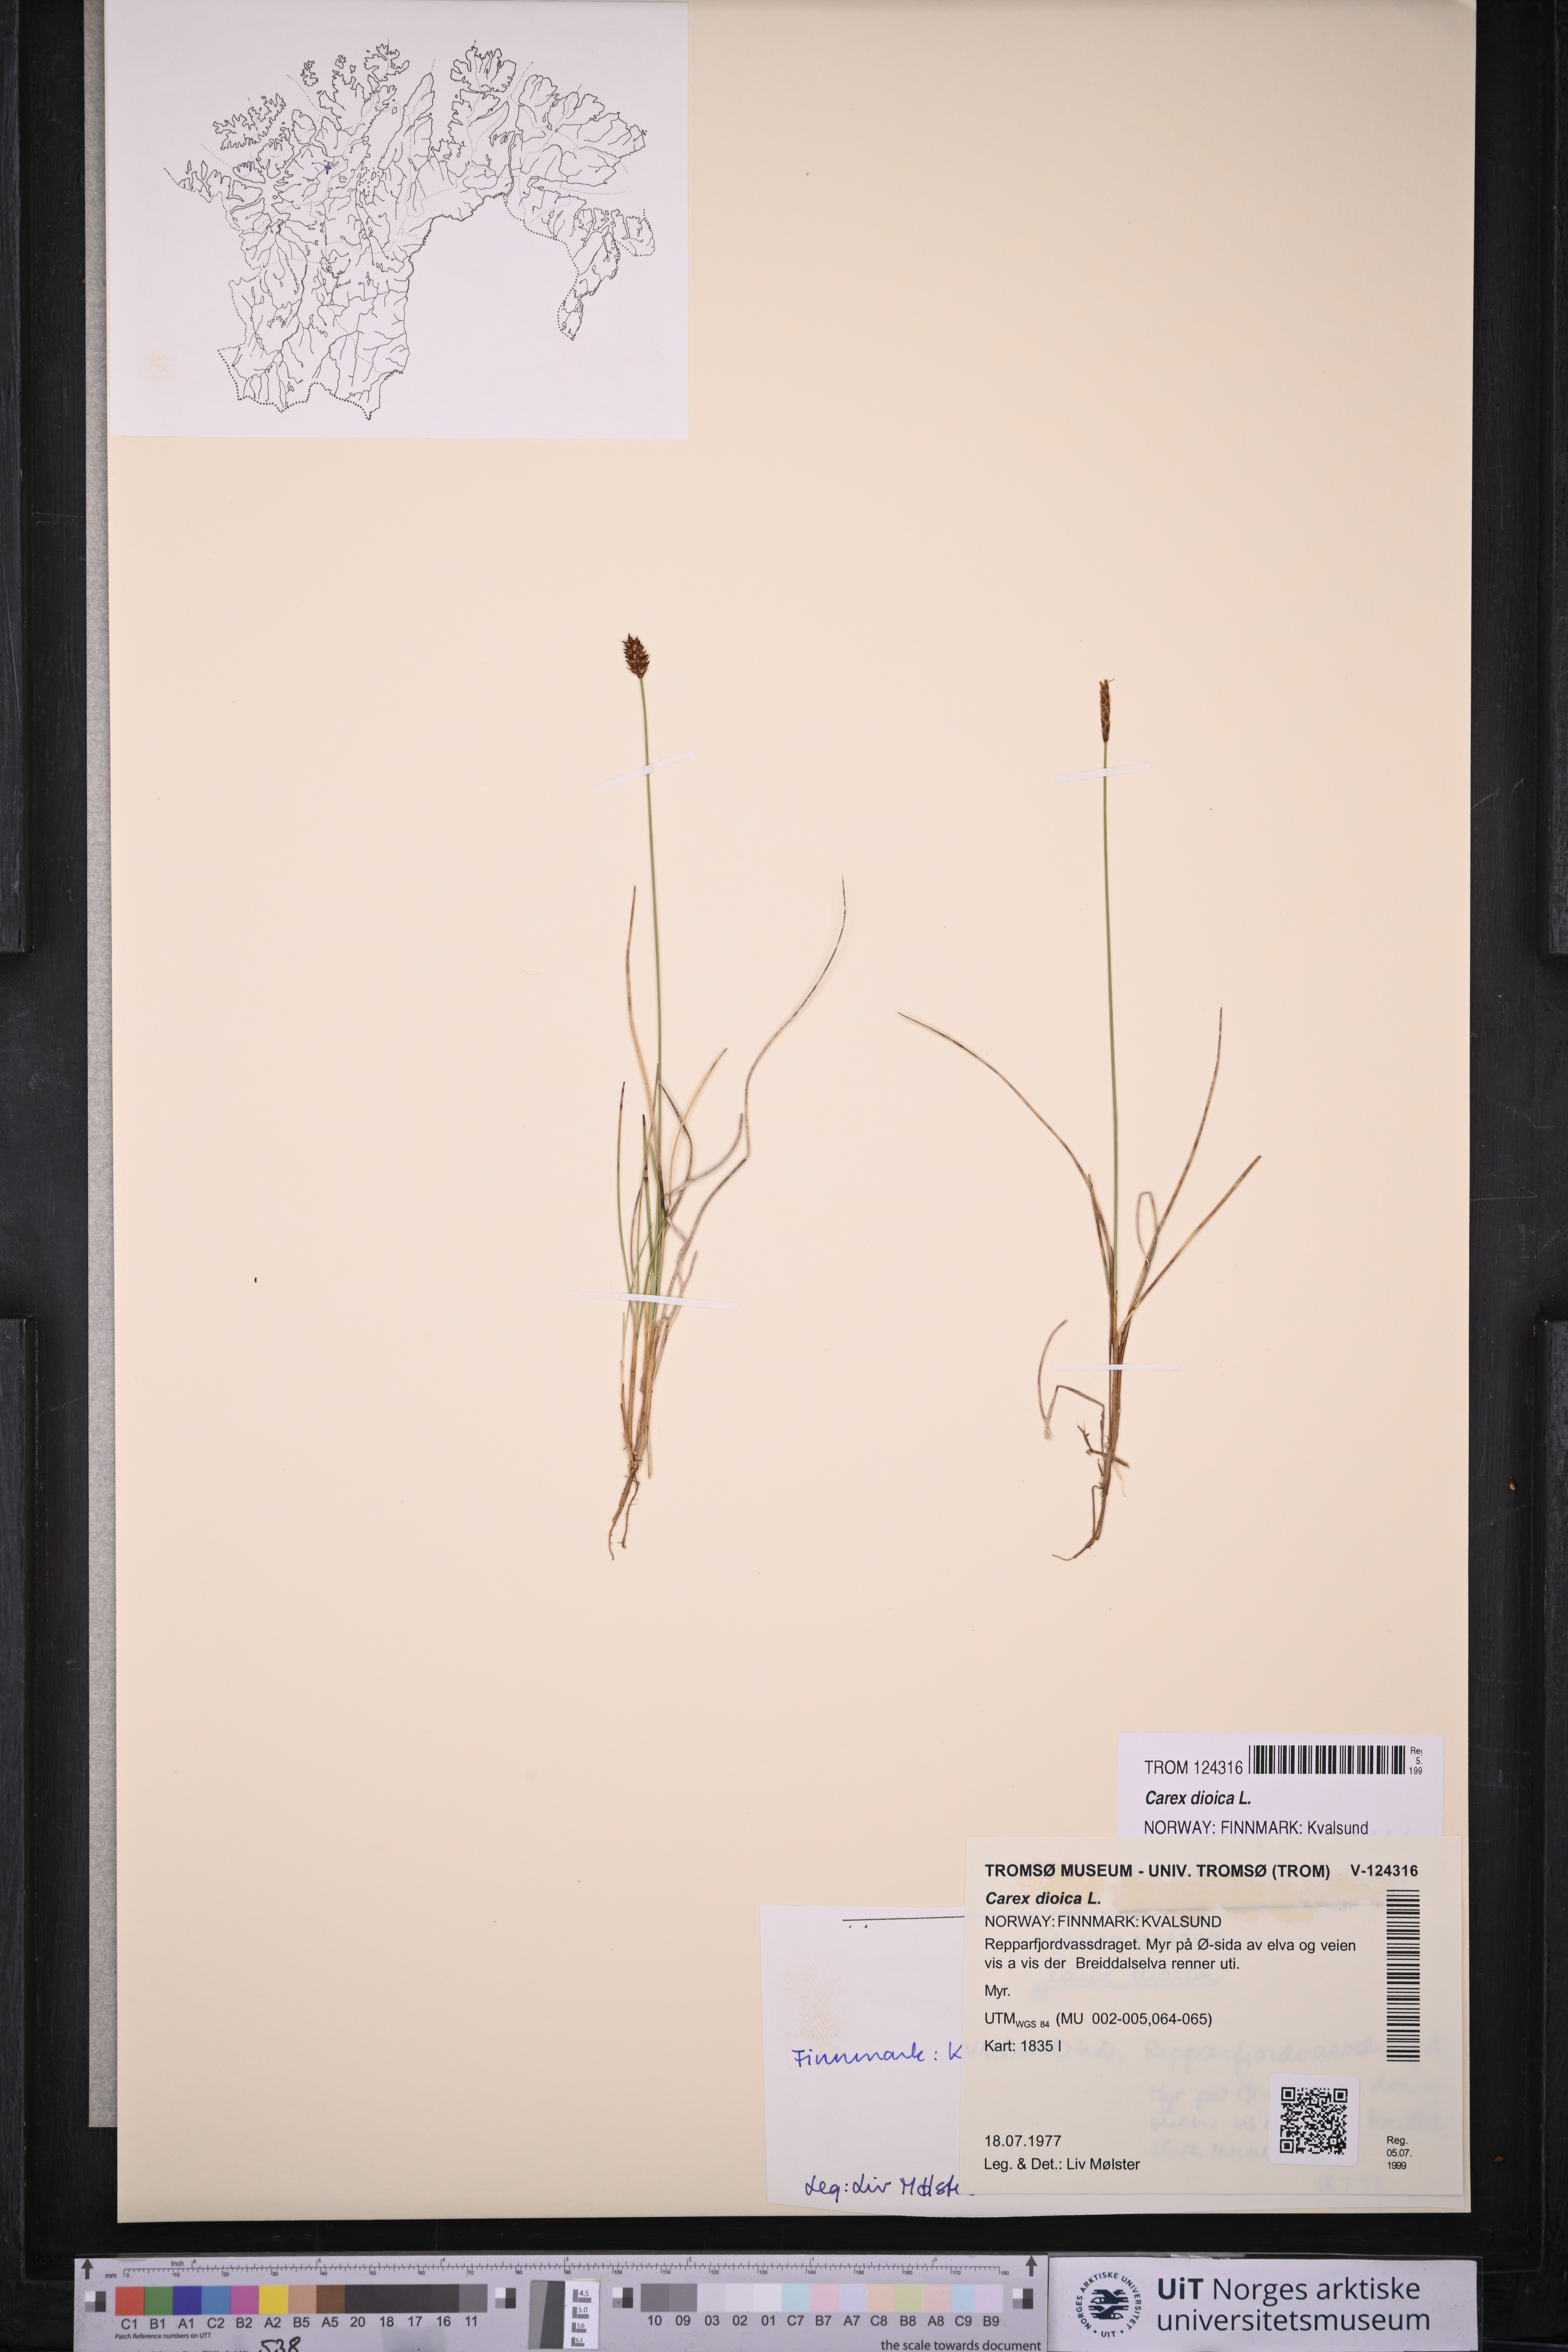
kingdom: Plantae
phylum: Tracheophyta
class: Liliopsida
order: Poales
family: Cyperaceae
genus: Carex
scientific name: Carex dioica
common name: Dioecious sedge
